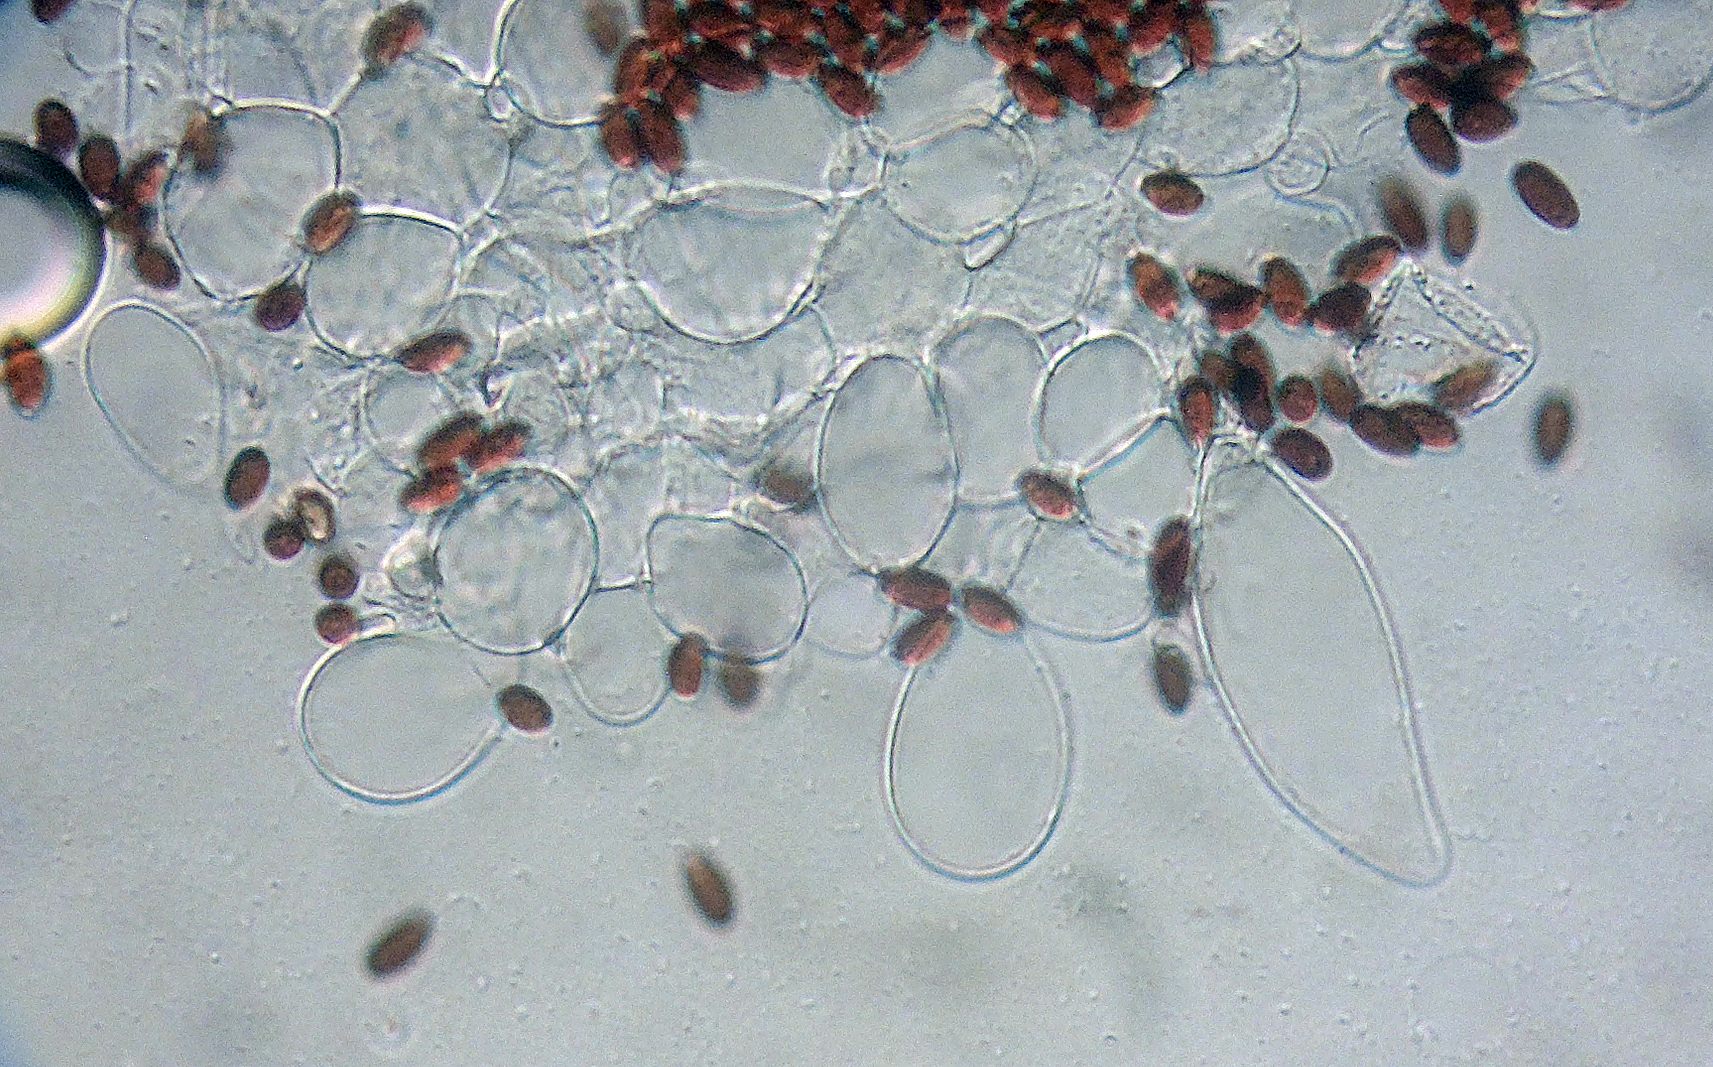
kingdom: Fungi
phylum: Basidiomycota
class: Agaricomycetes
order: Agaricales
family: Psathyrellaceae
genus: Coprinopsis
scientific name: Coprinopsis stercorea
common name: pjusket blækhat
